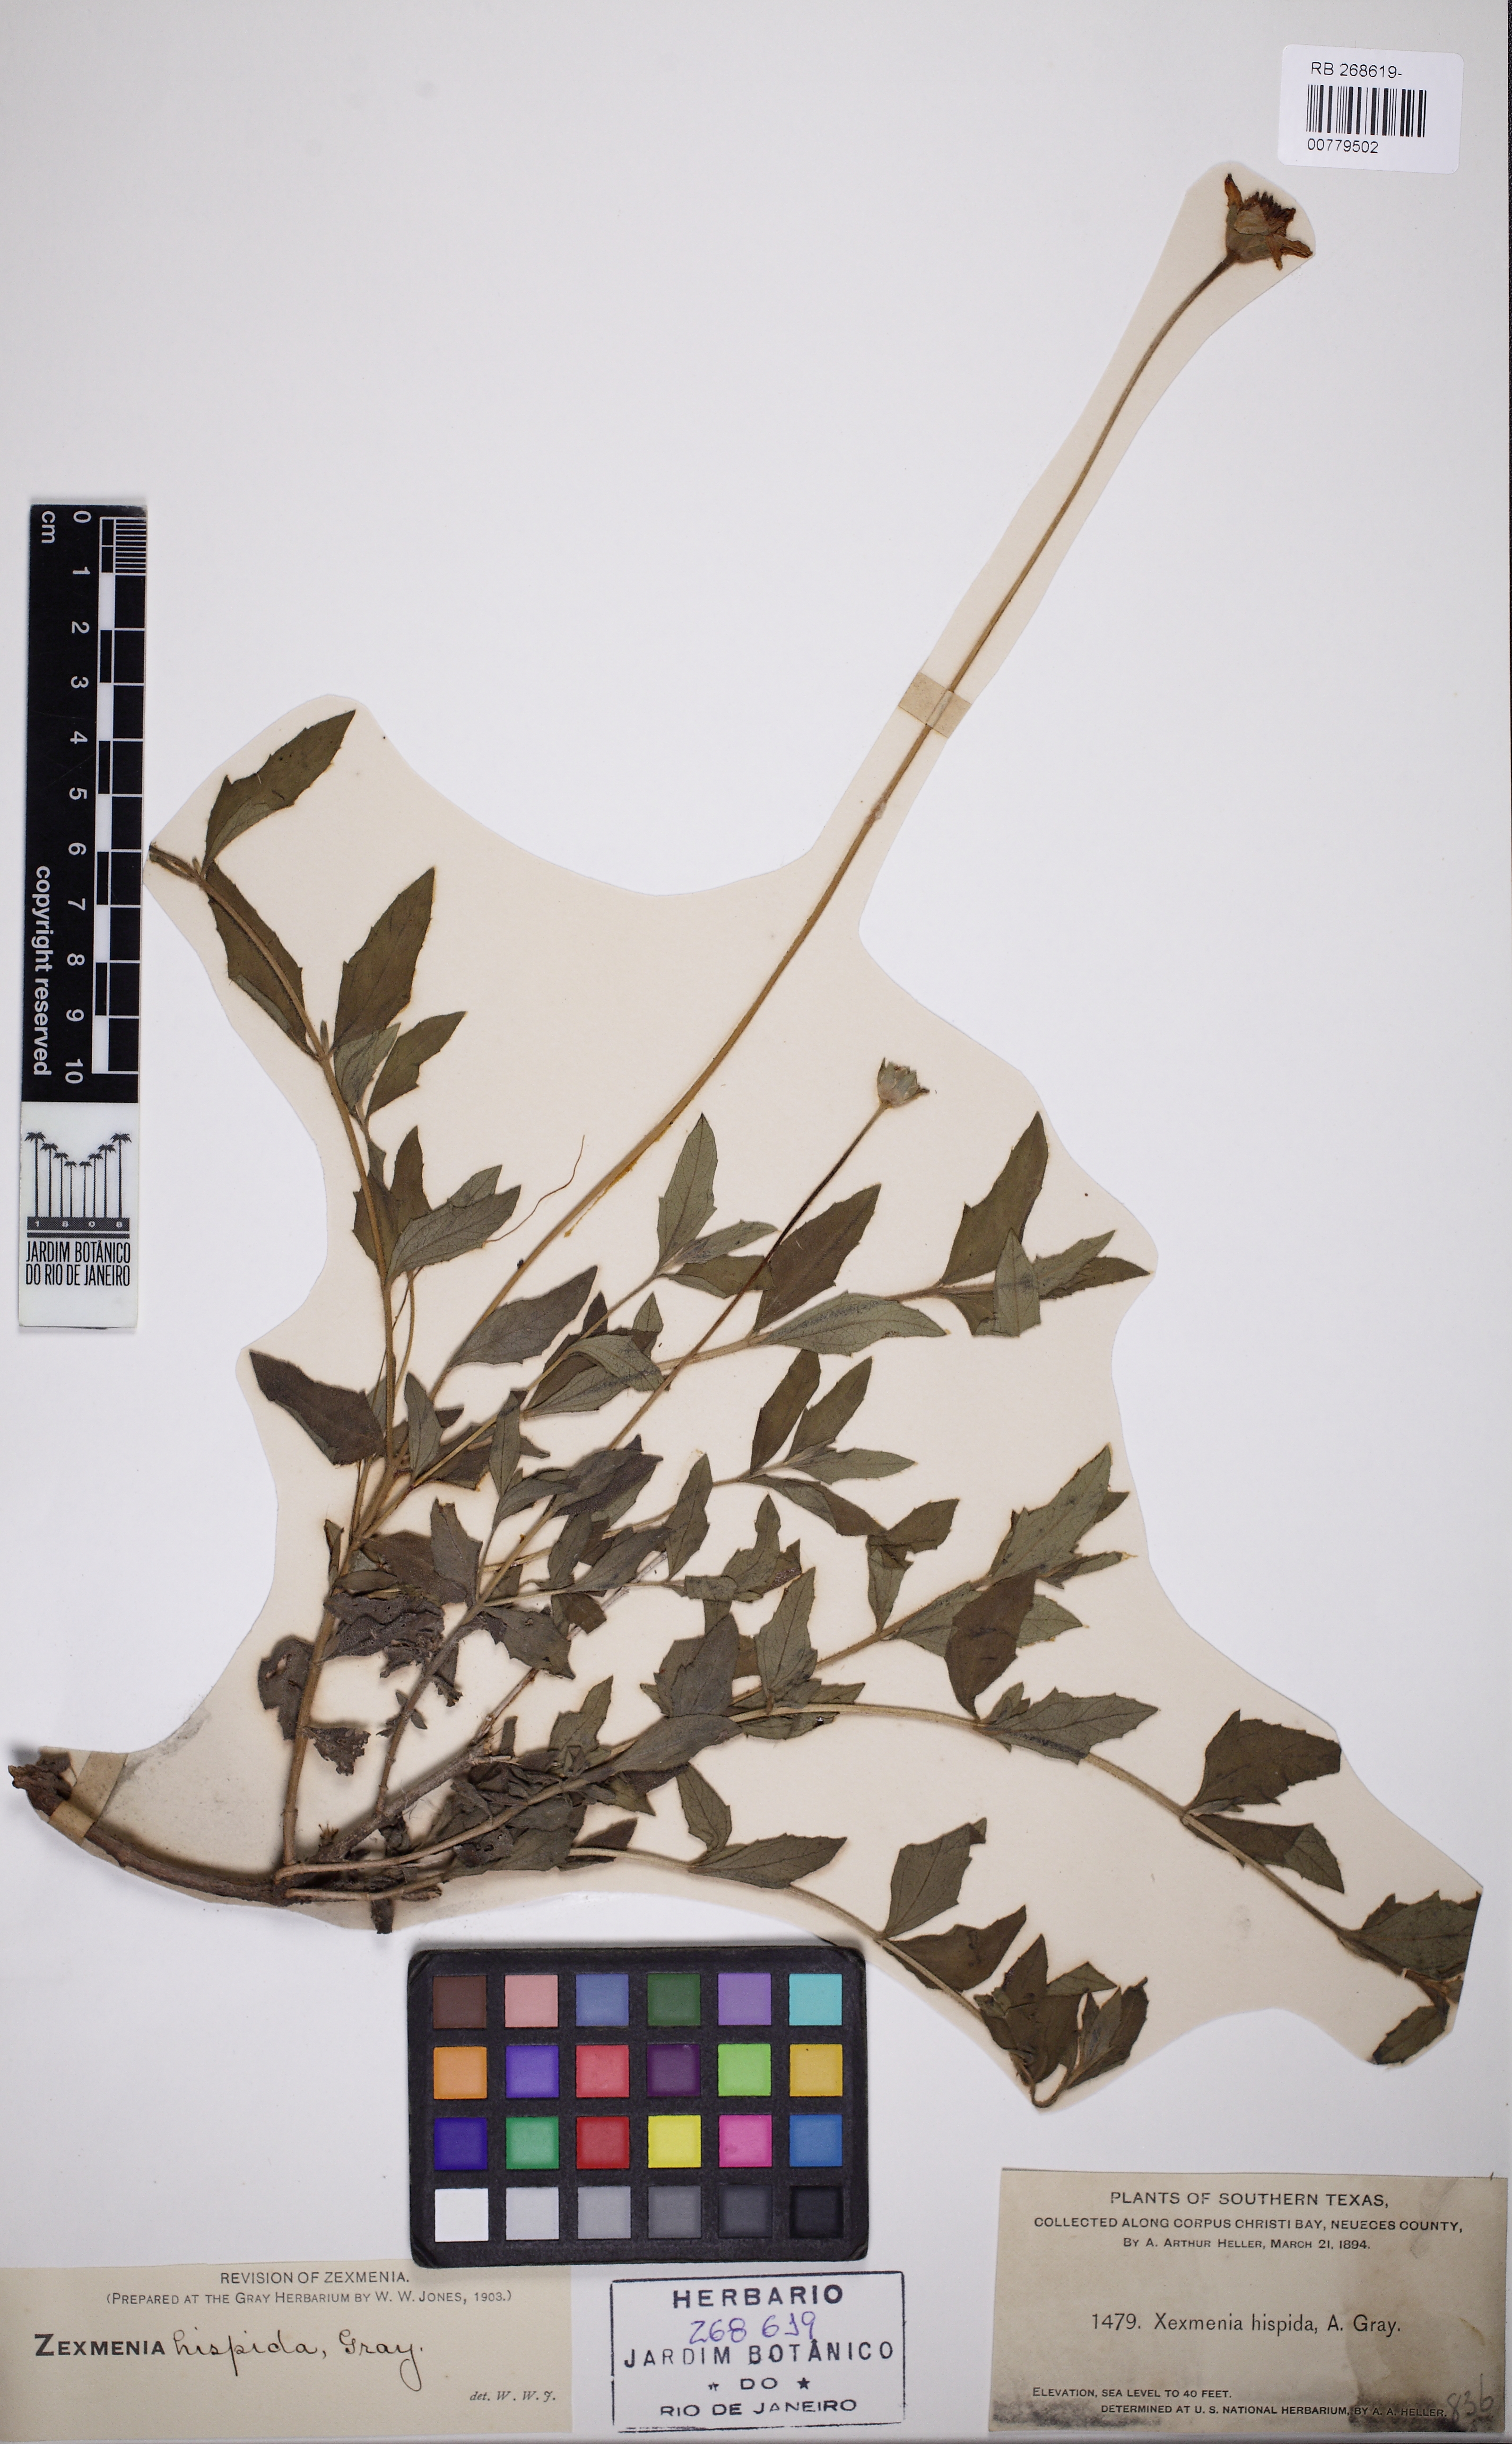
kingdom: Plantae
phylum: Tracheophyta
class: Magnoliopsida
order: Asterales
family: Asteraceae
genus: Wedelia
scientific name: Wedelia acapulcensis
